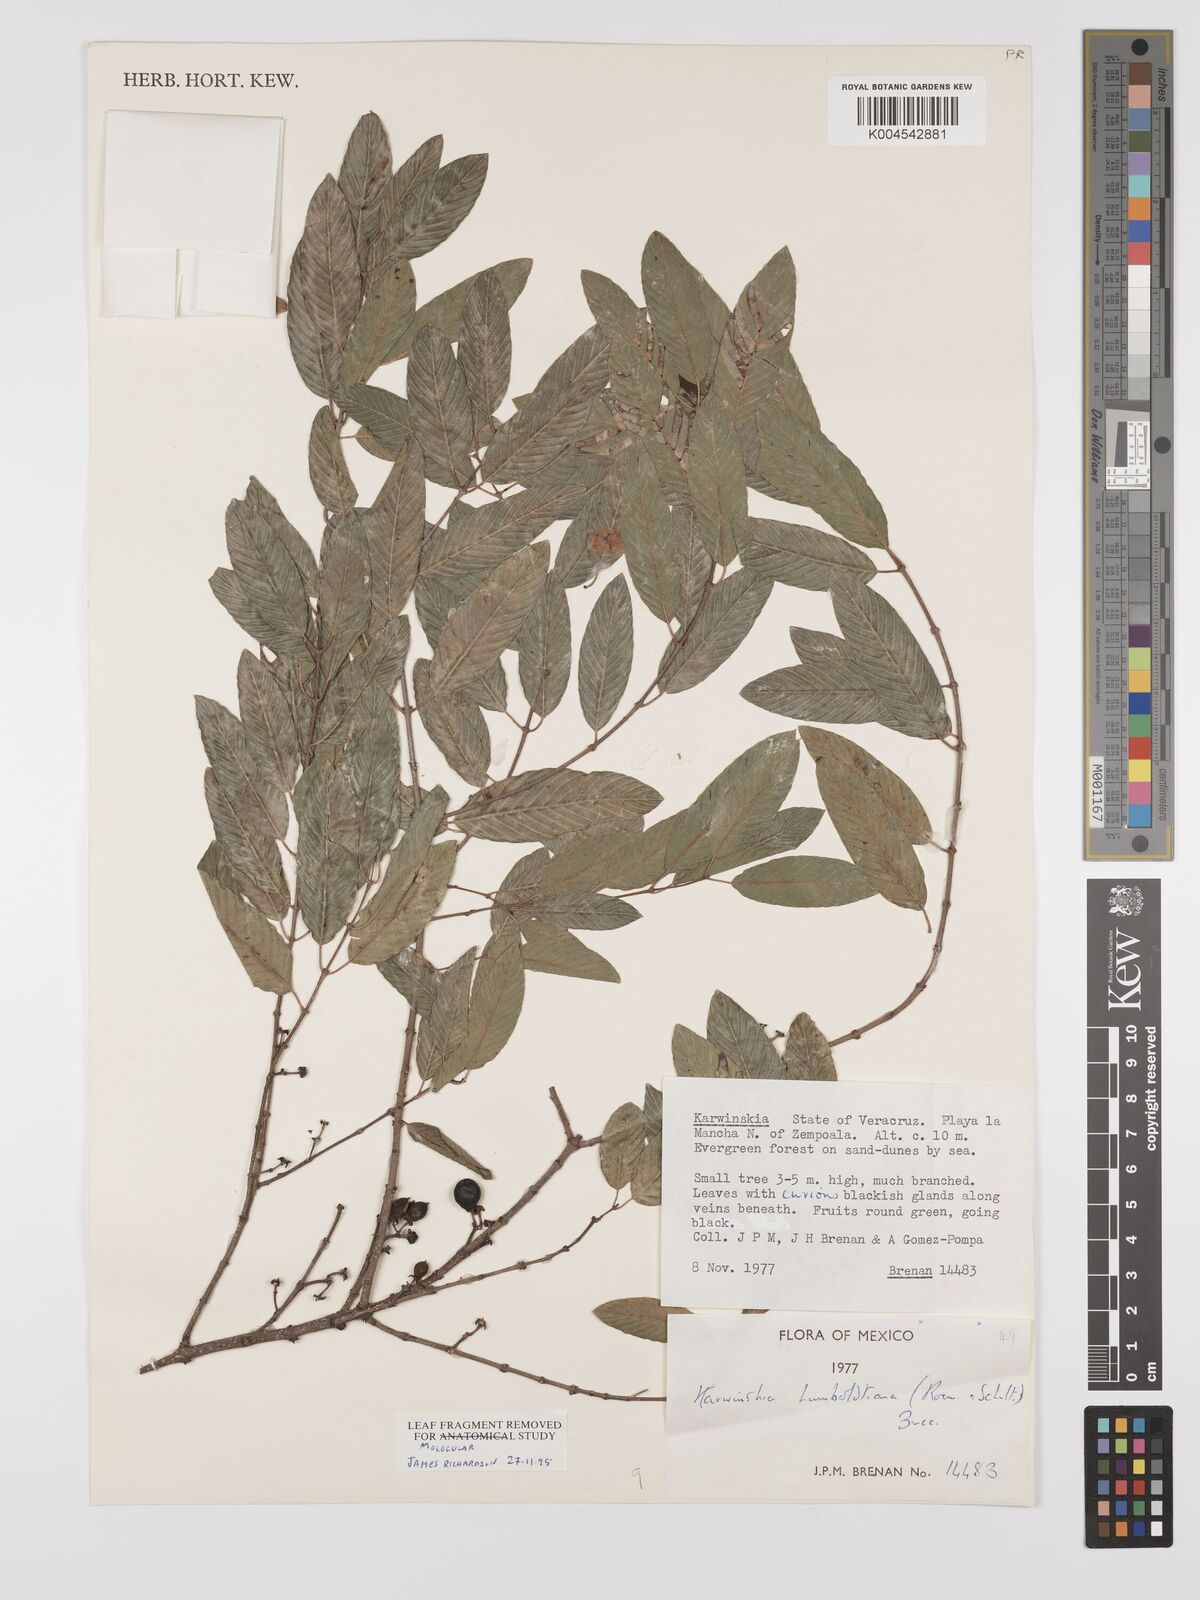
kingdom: Plantae
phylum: Tracheophyta
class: Magnoliopsida
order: Rosales
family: Rhamnaceae
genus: Karwinskia
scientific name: Karwinskia humboldtiana
